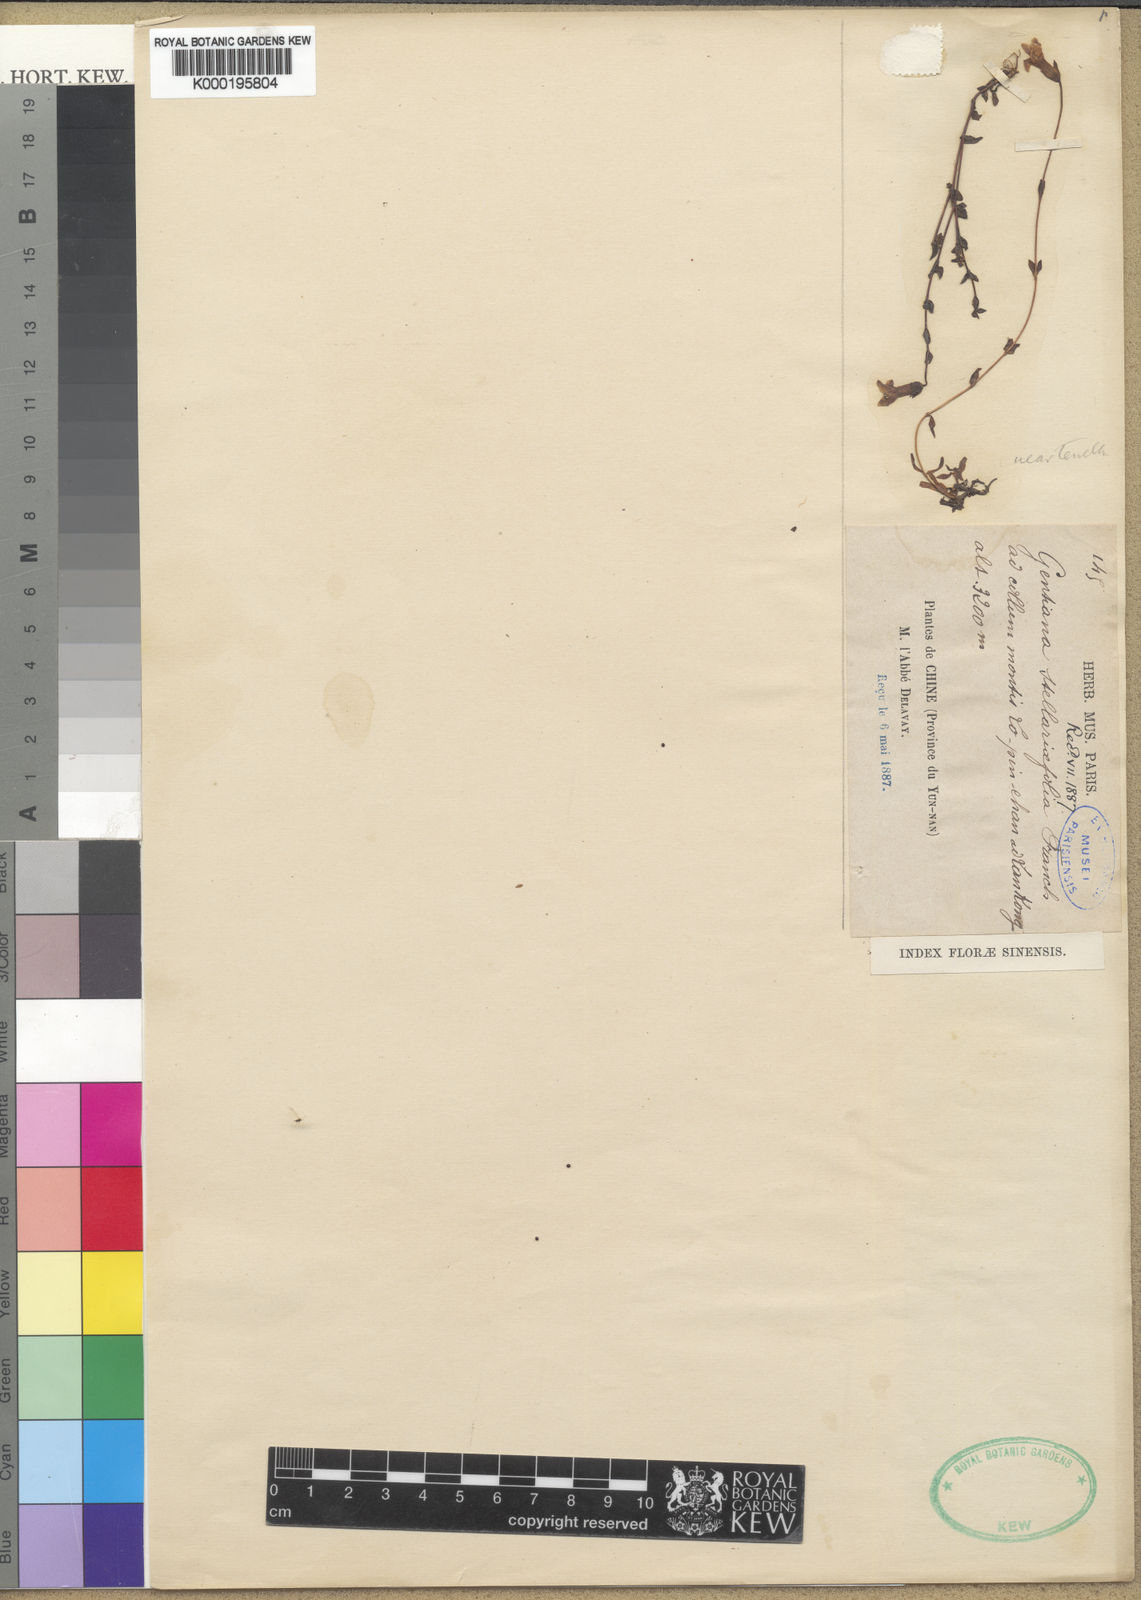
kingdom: Plantae
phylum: Tracheophyta
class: Magnoliopsida
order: Gentianales
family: Gentianaceae
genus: Comastoma
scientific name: Comastoma stellariifolium
